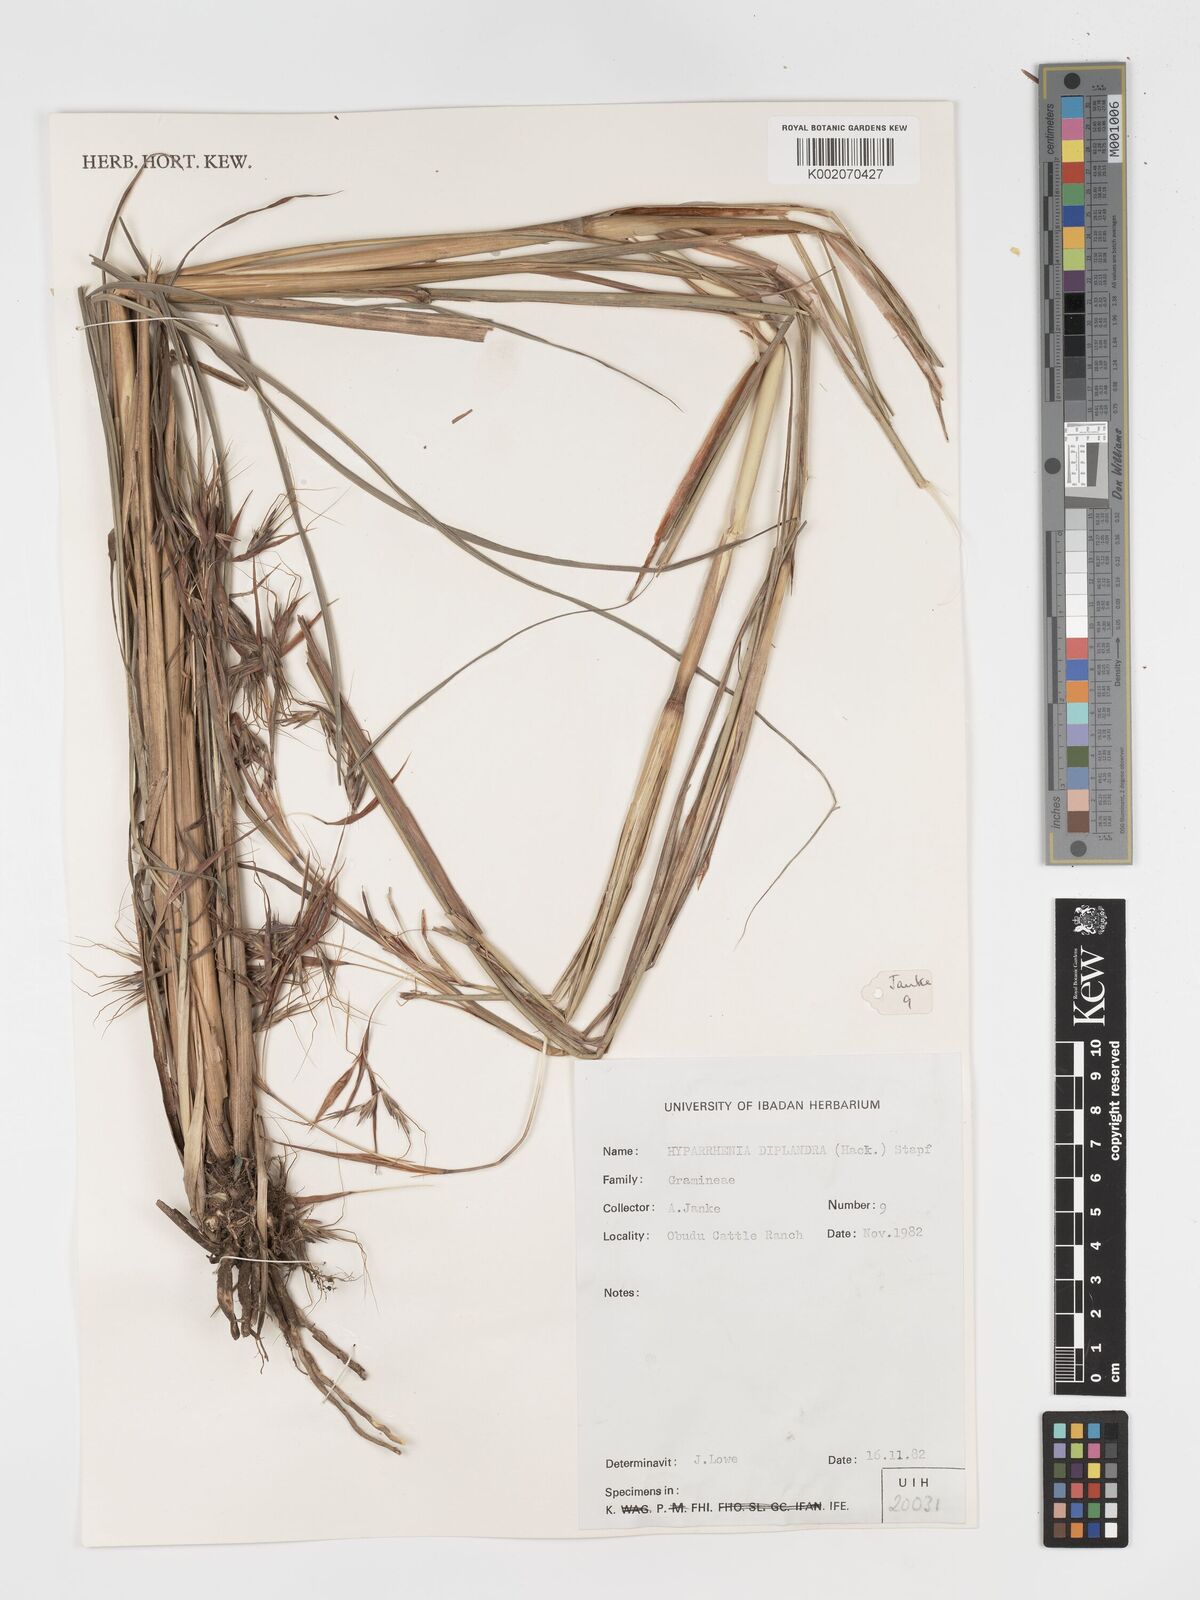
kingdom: Plantae
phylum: Tracheophyta
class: Liliopsida
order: Poales
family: Poaceae
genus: Hyparrhenia
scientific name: Hyparrhenia diplandra
